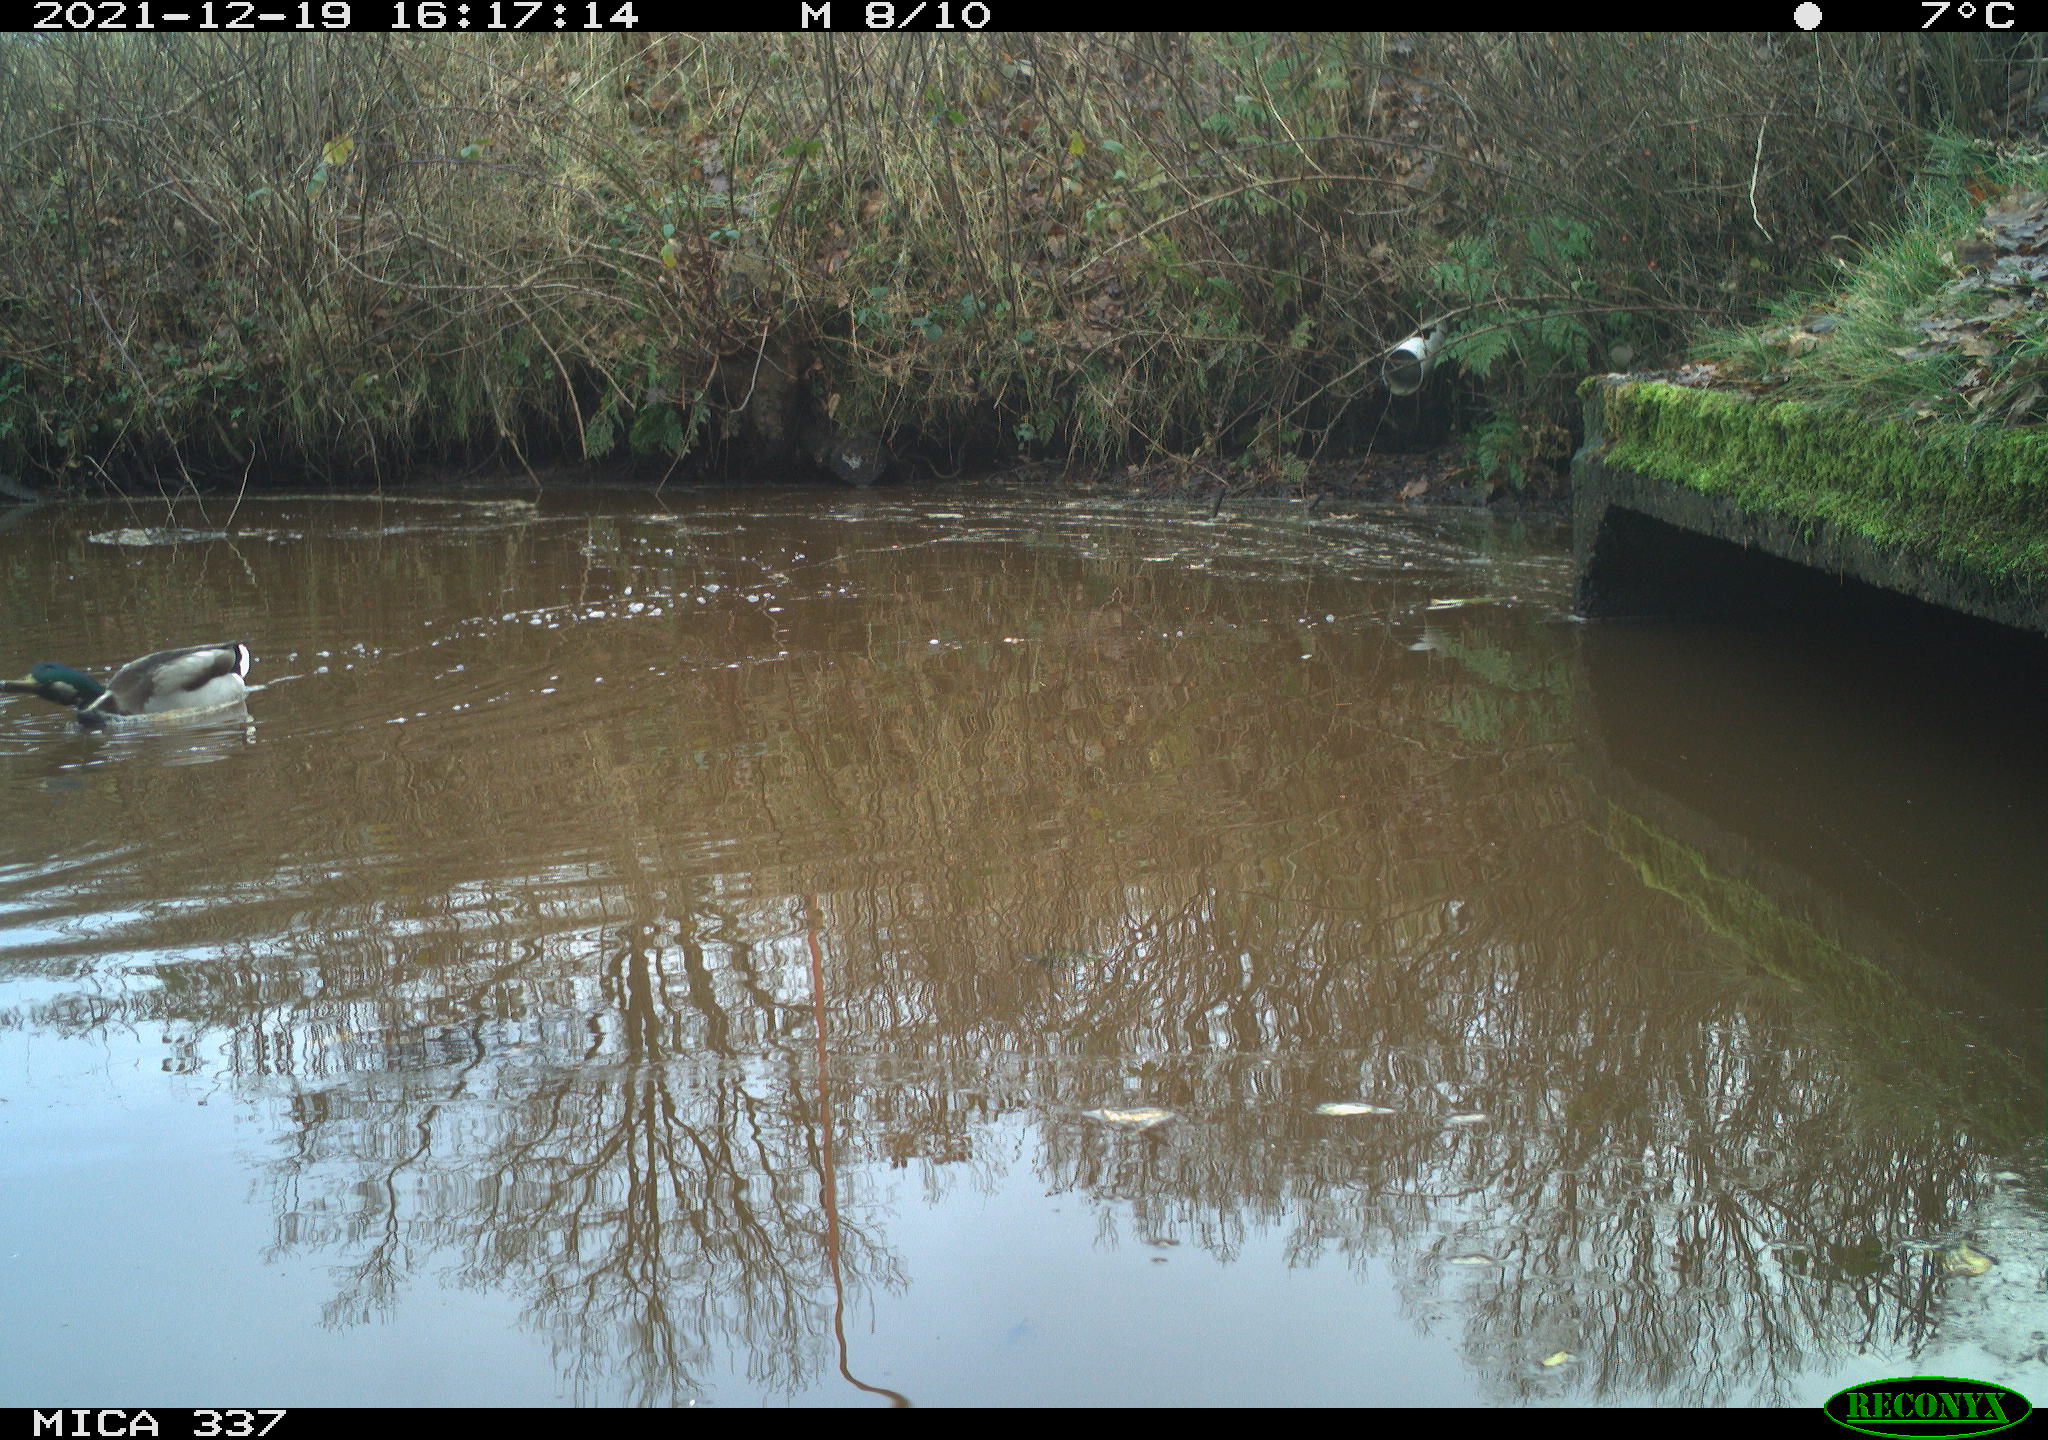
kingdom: Animalia
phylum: Chordata
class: Aves
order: Anseriformes
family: Anatidae
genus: Anas
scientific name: Anas platyrhynchos
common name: Mallard
